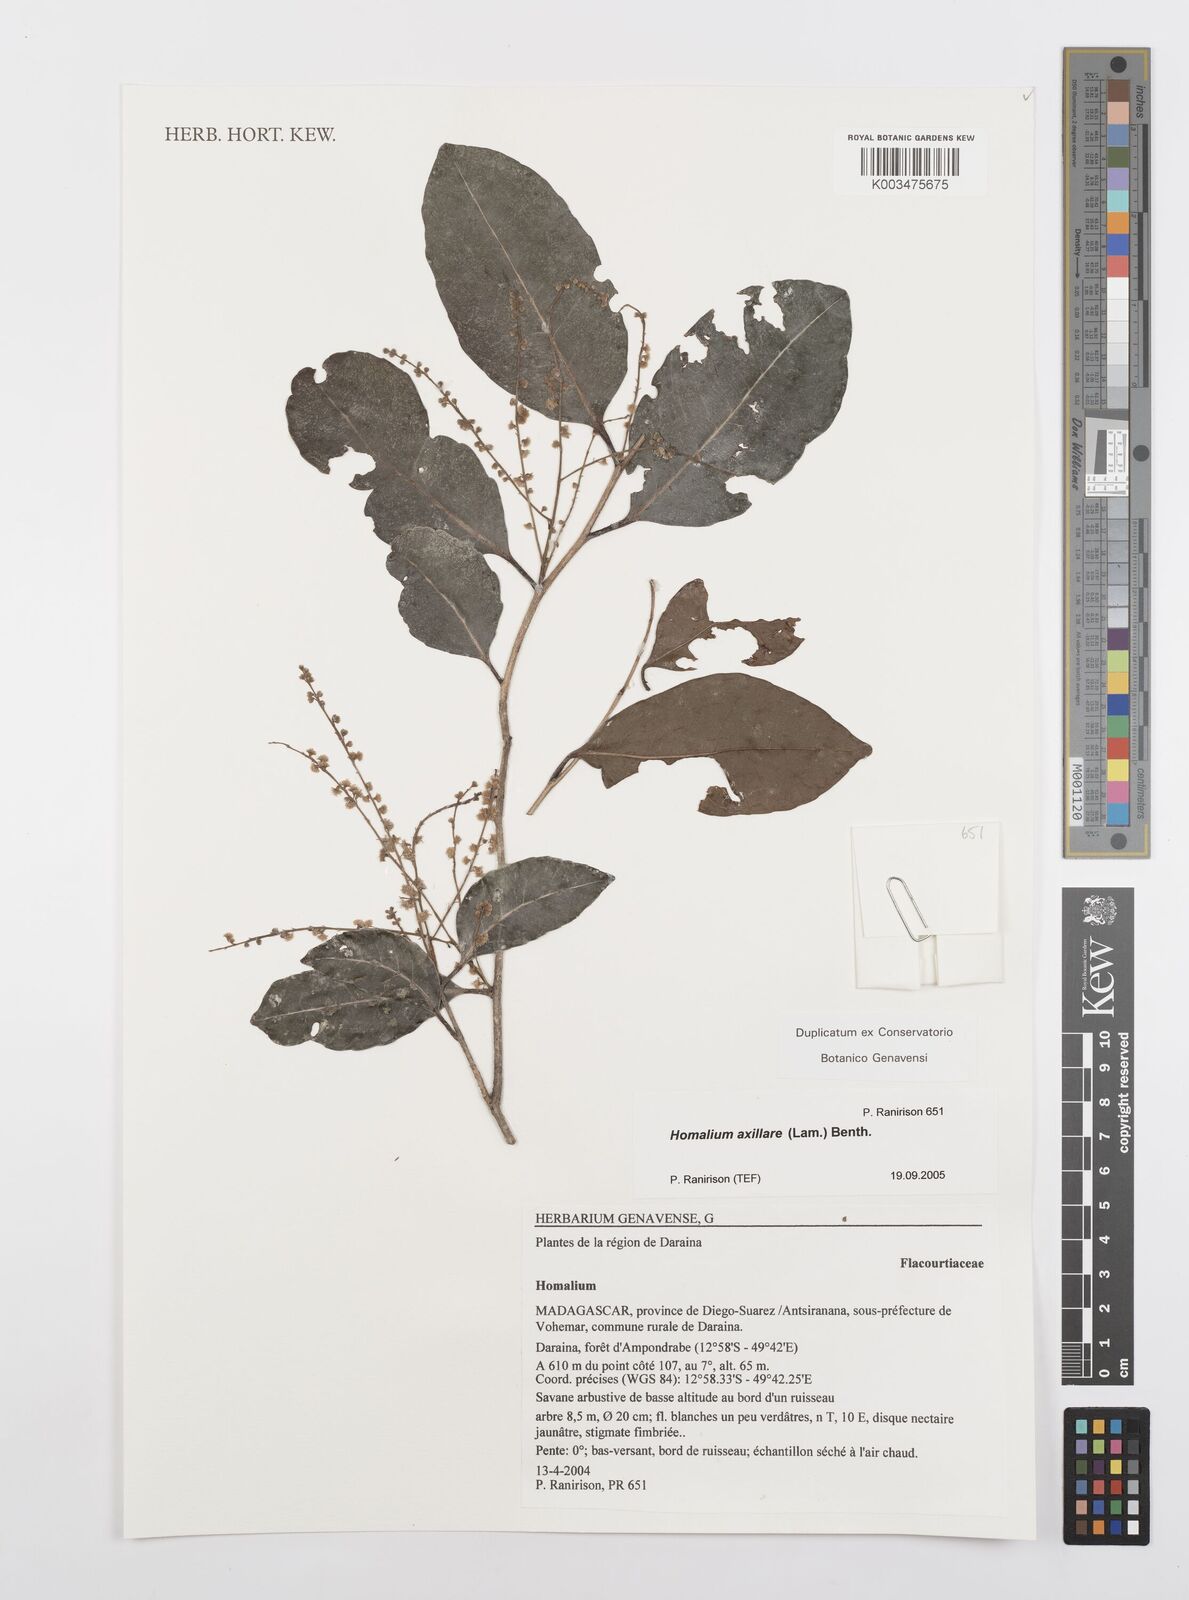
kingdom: Plantae
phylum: Tracheophyta
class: Magnoliopsida
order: Malpighiales
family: Salicaceae
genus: Homalium
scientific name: Homalium axillare
